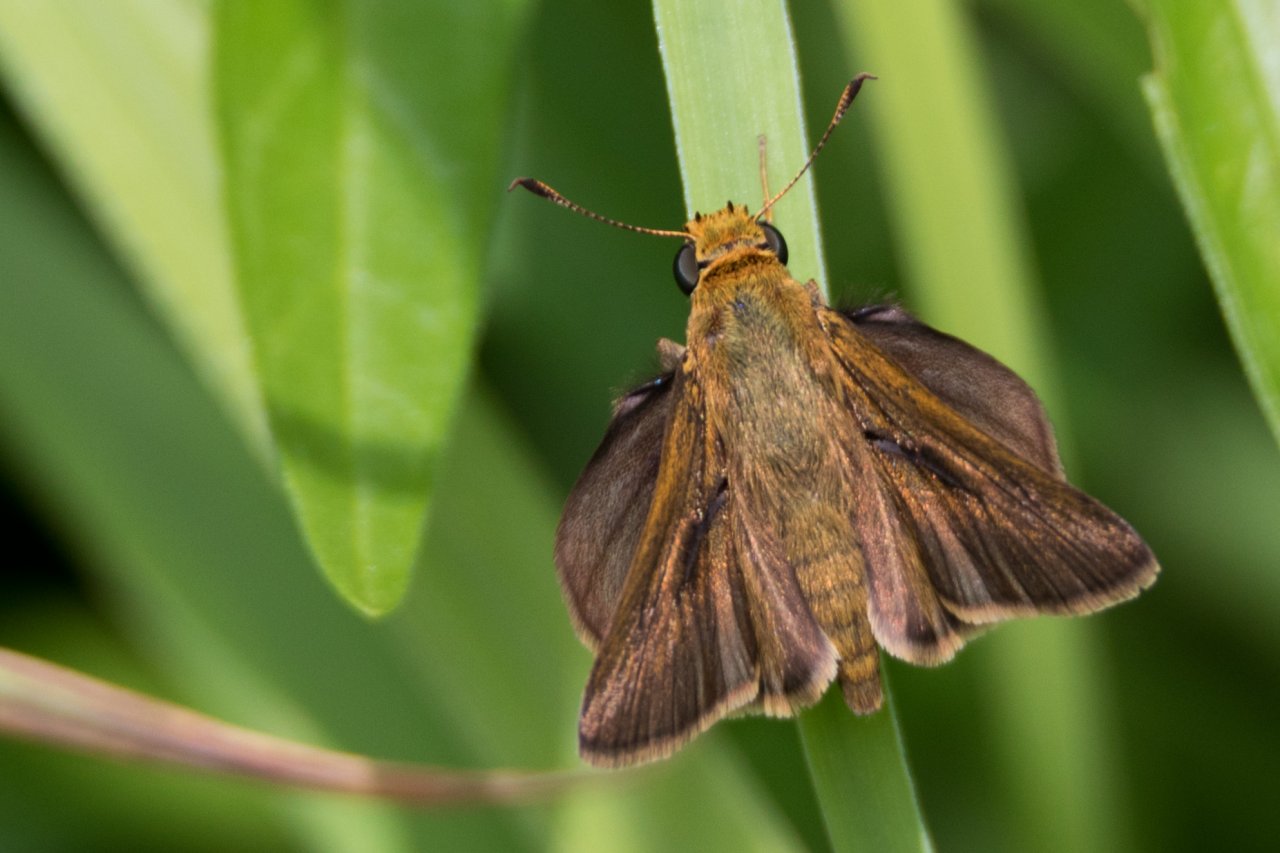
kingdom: Animalia
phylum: Arthropoda
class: Insecta
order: Lepidoptera
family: Hesperiidae
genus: Euphyes
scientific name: Euphyes vestris
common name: Dun Skipper
